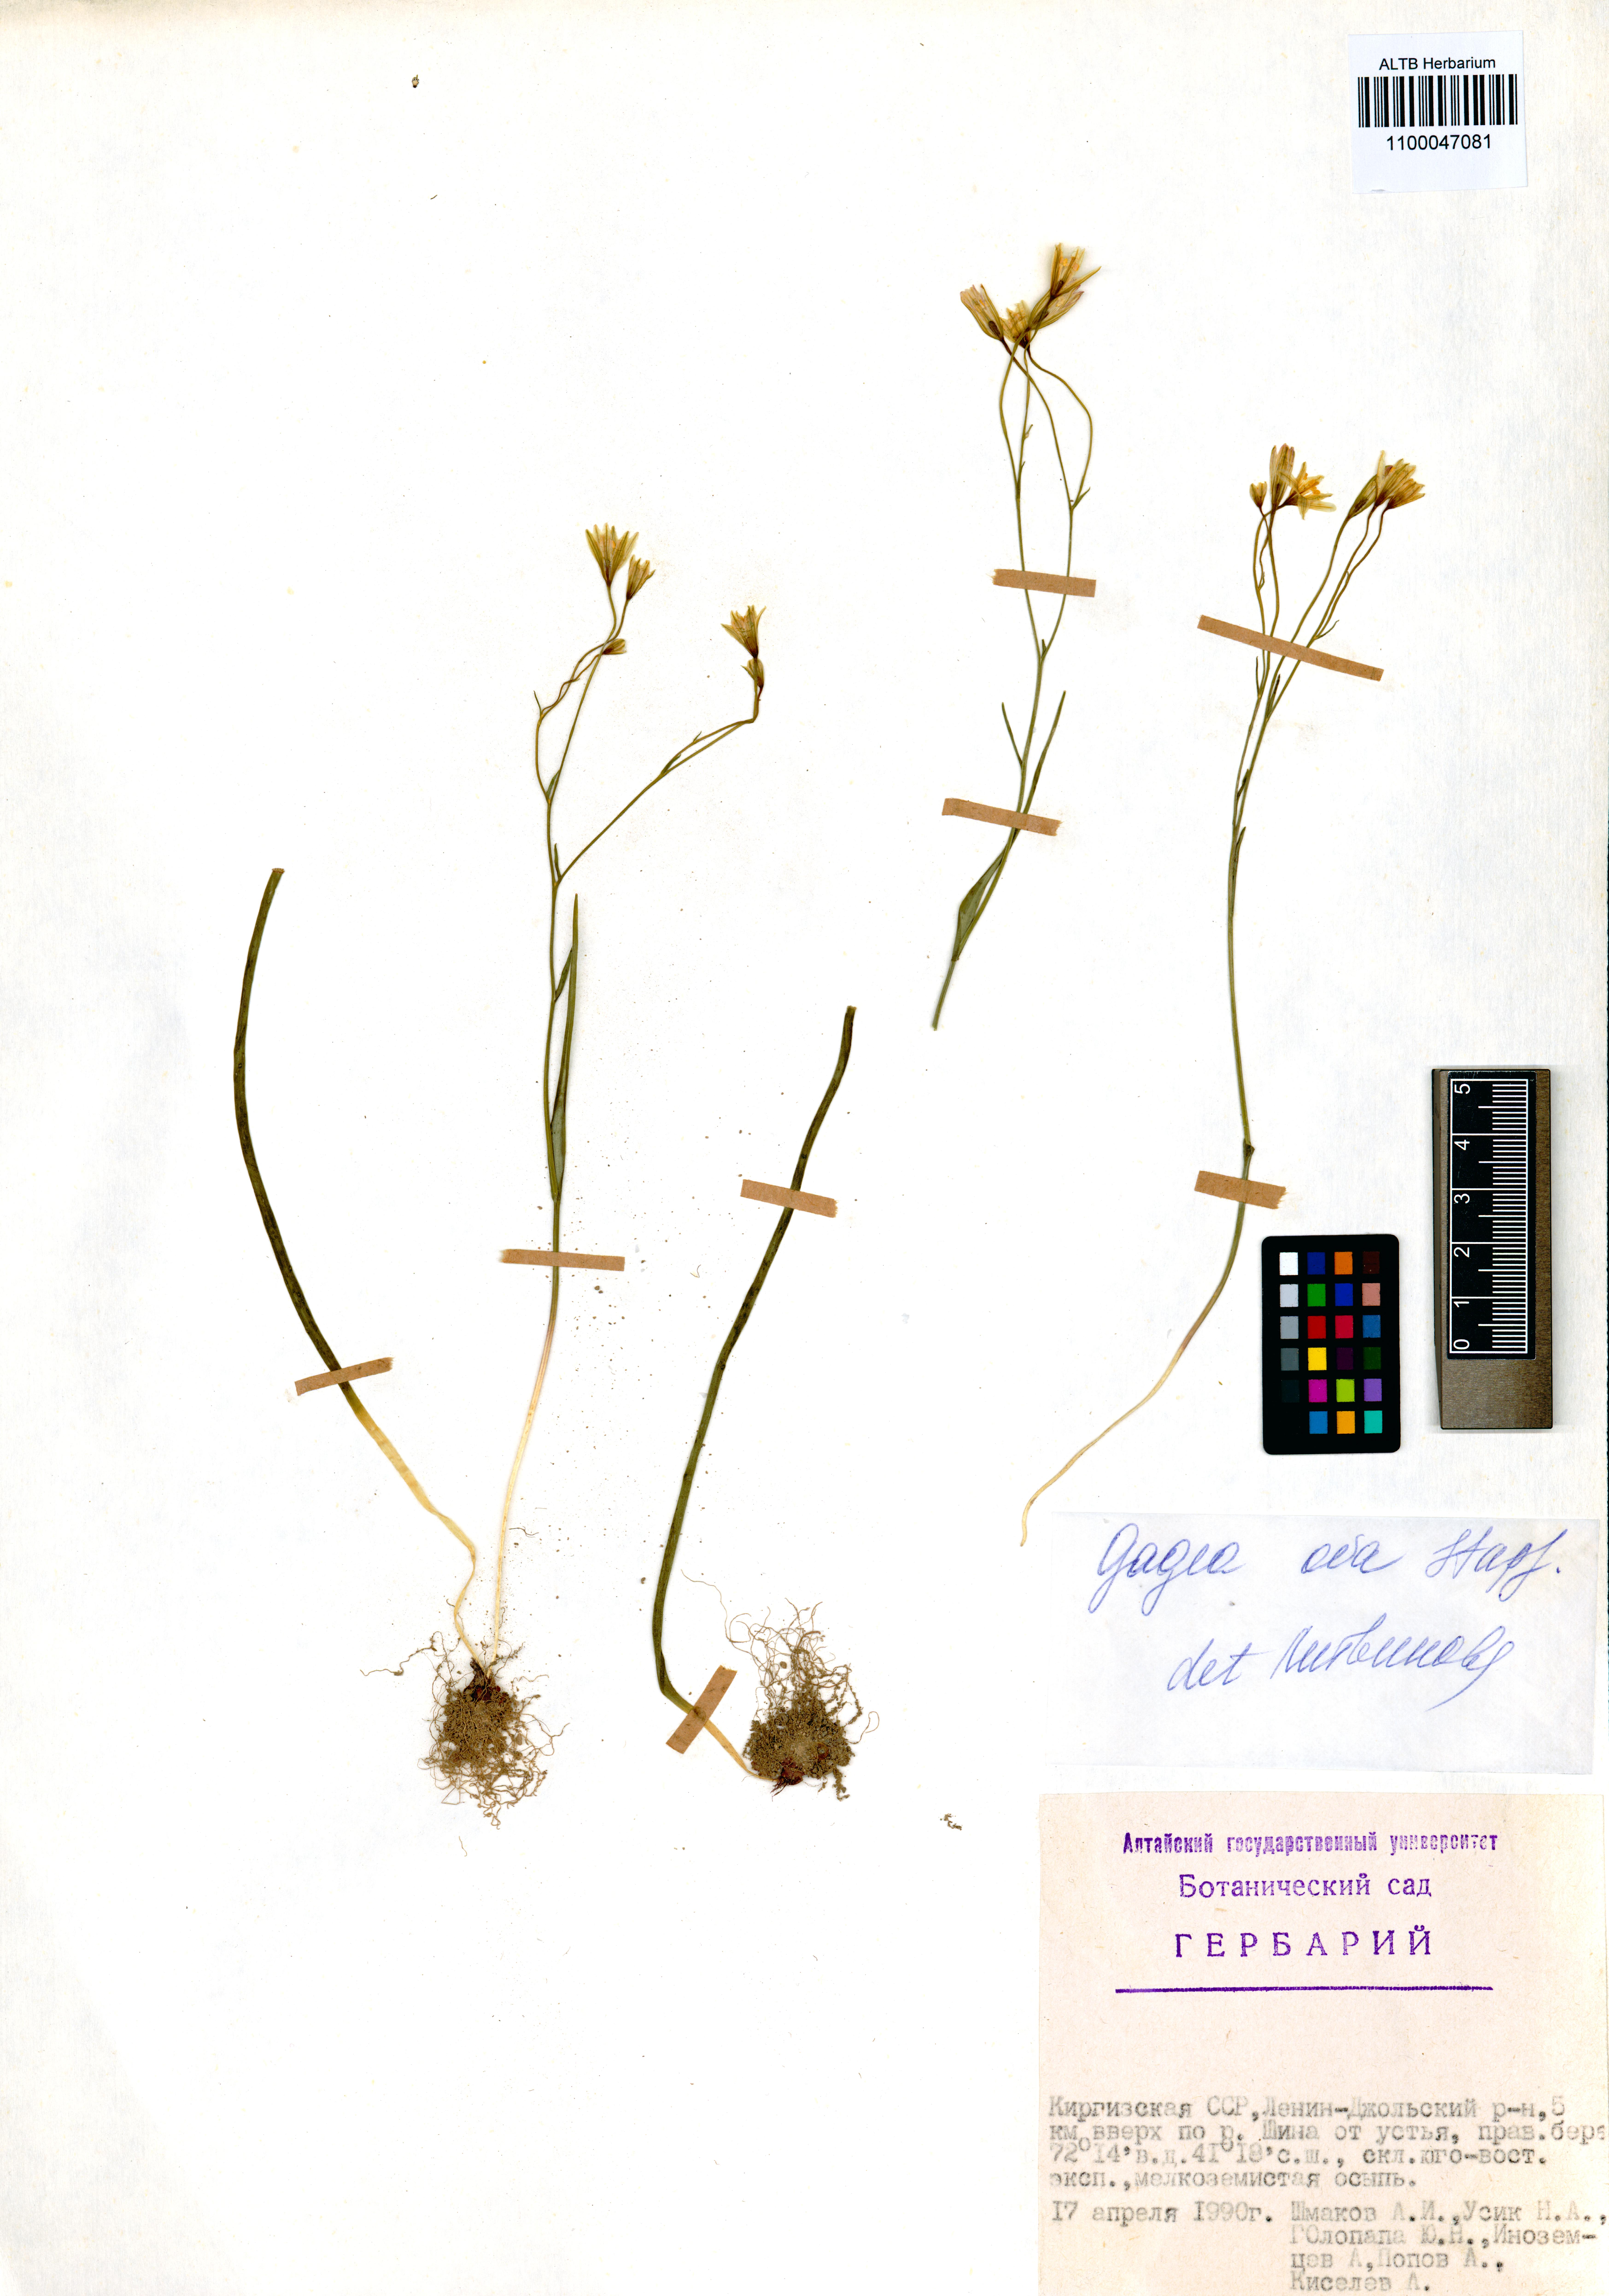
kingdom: Plantae
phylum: Tracheophyta
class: Liliopsida
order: Liliales
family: Liliaceae
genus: Gagea
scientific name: Gagea kunawurensis
